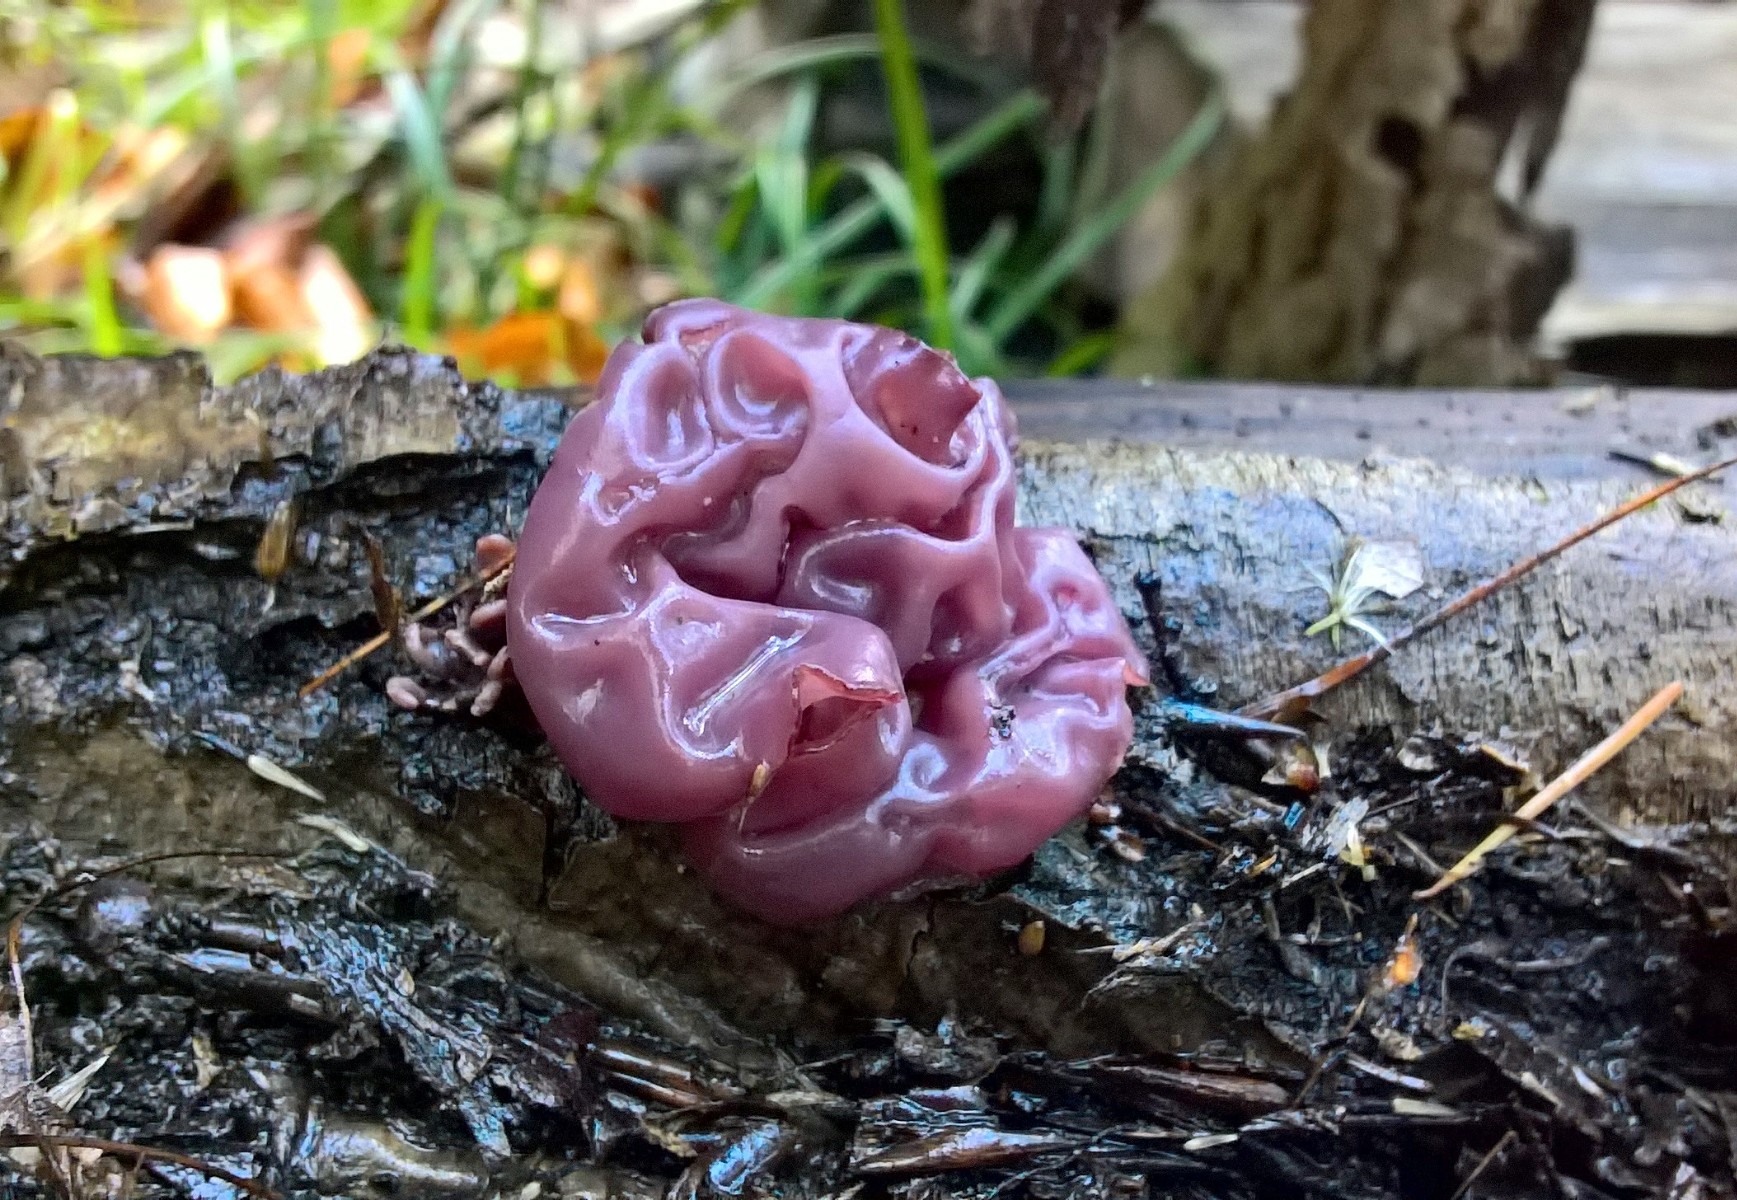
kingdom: Fungi
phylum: Ascomycota
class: Leotiomycetes
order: Helotiales
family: Gelatinodiscaceae
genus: Ascocoryne
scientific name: Ascocoryne sarcoides
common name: rødlilla sejskive
